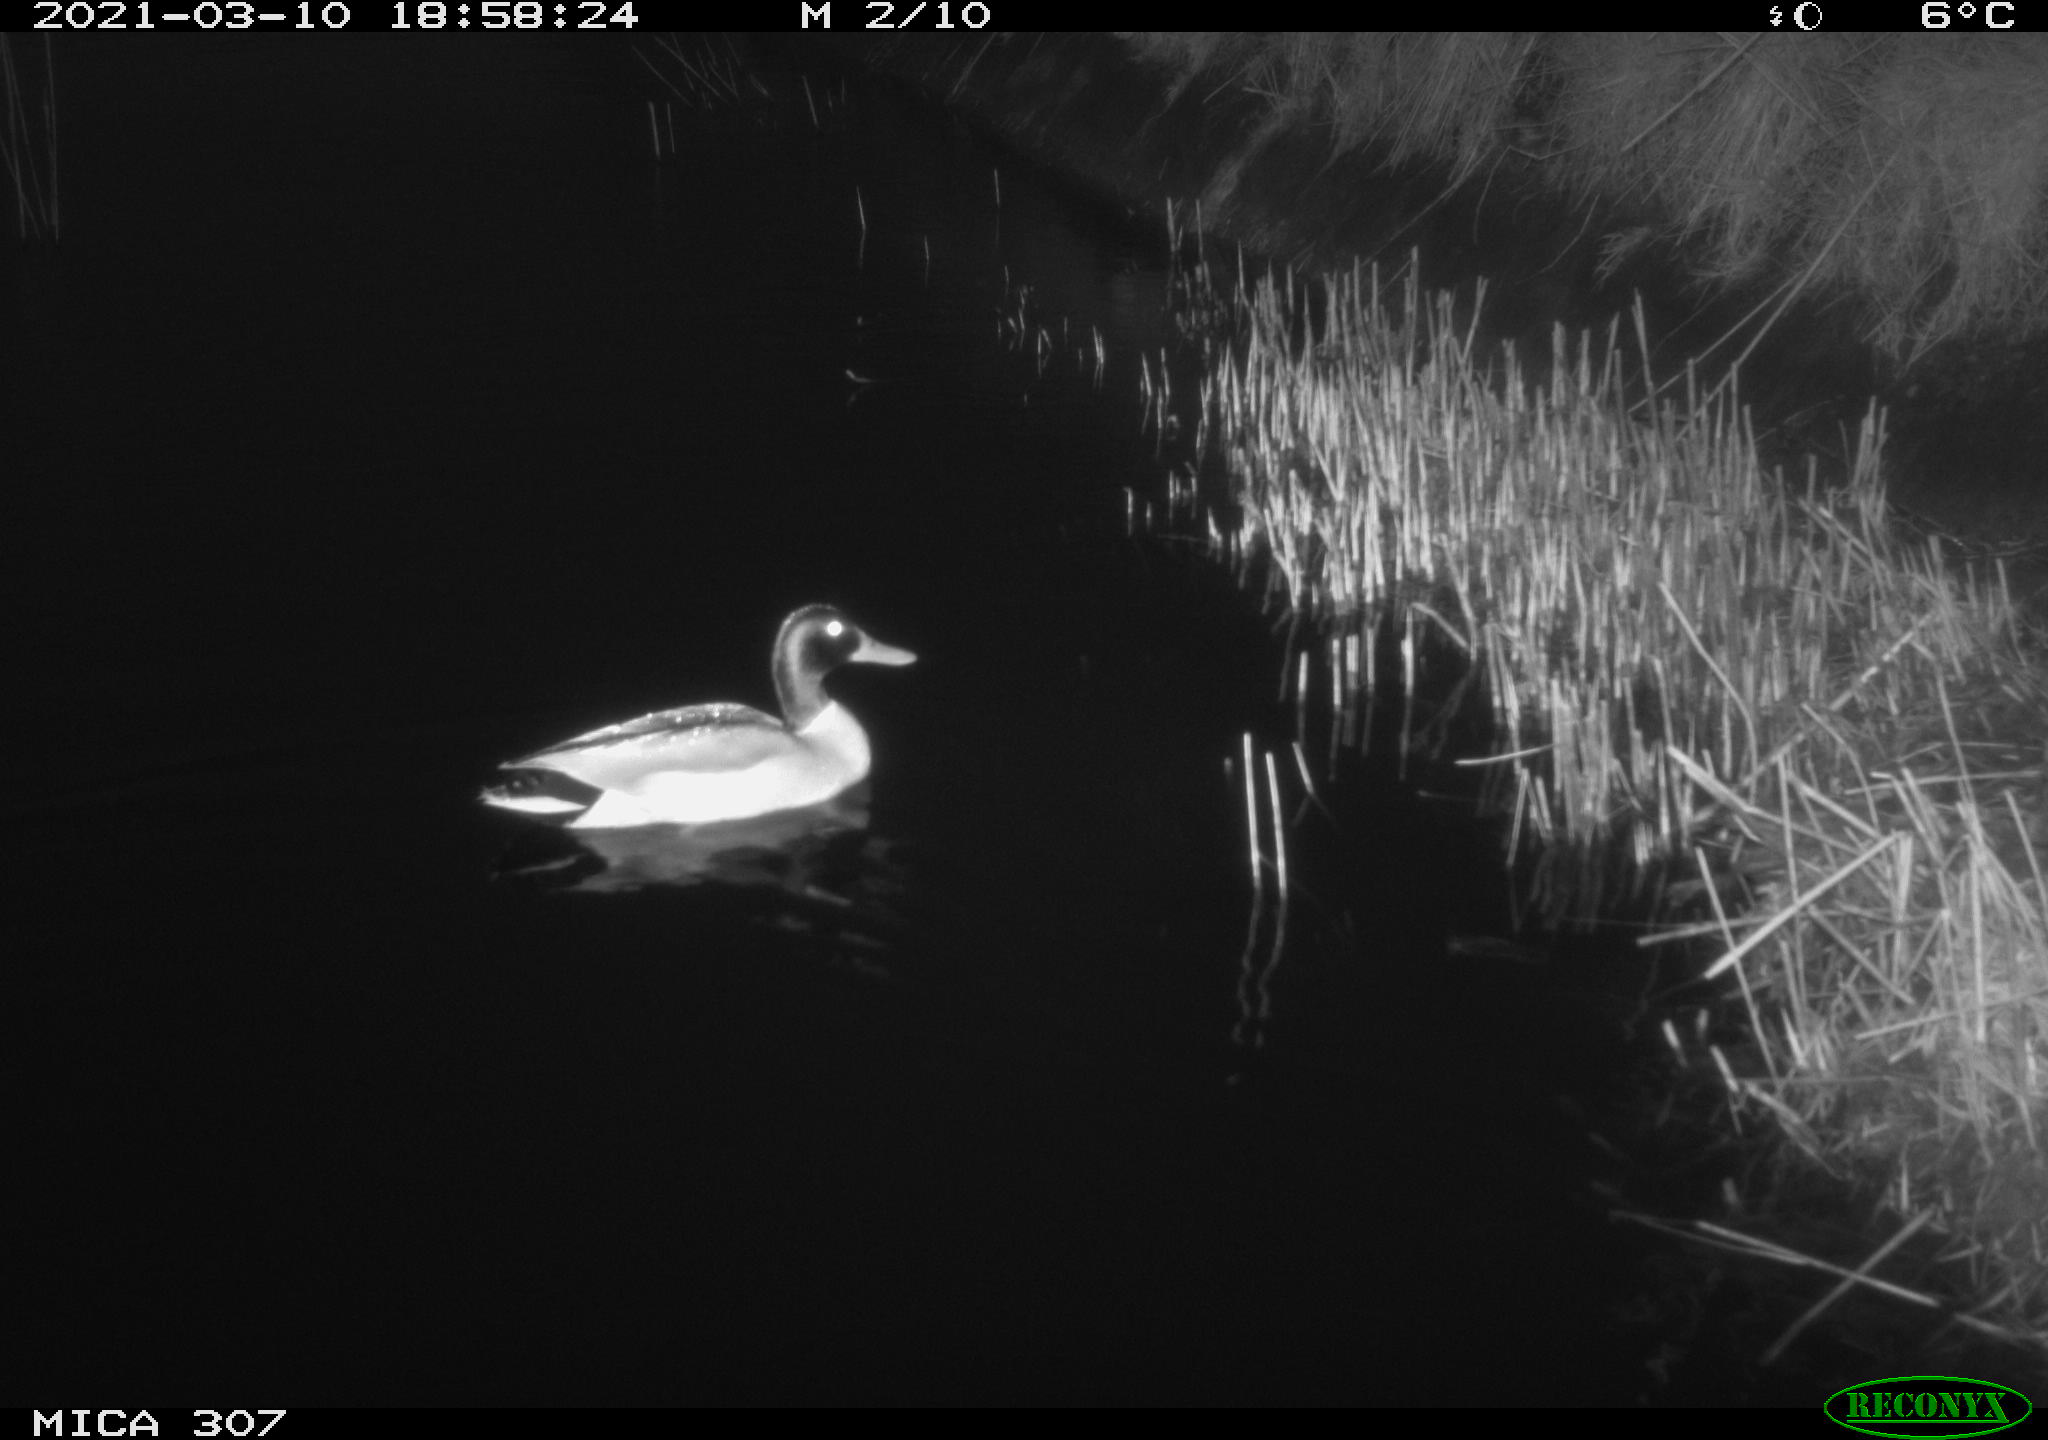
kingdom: Animalia
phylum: Chordata
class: Aves
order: Anseriformes
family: Anatidae
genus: Anas
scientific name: Anas platyrhynchos
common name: Mallard
